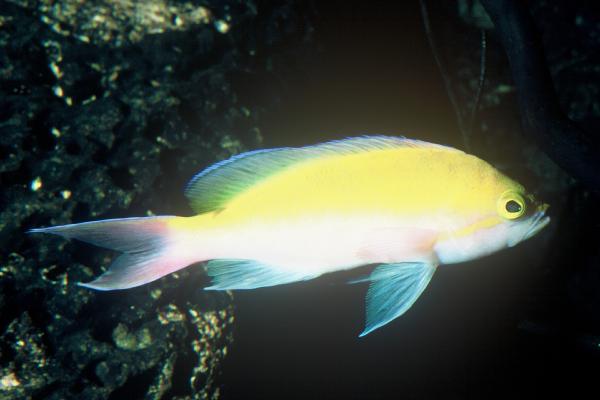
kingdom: Animalia
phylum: Chordata
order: Perciformes
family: Serranidae
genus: Pseudanthias
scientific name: Pseudanthias bicolor
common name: Bicolor anthias
